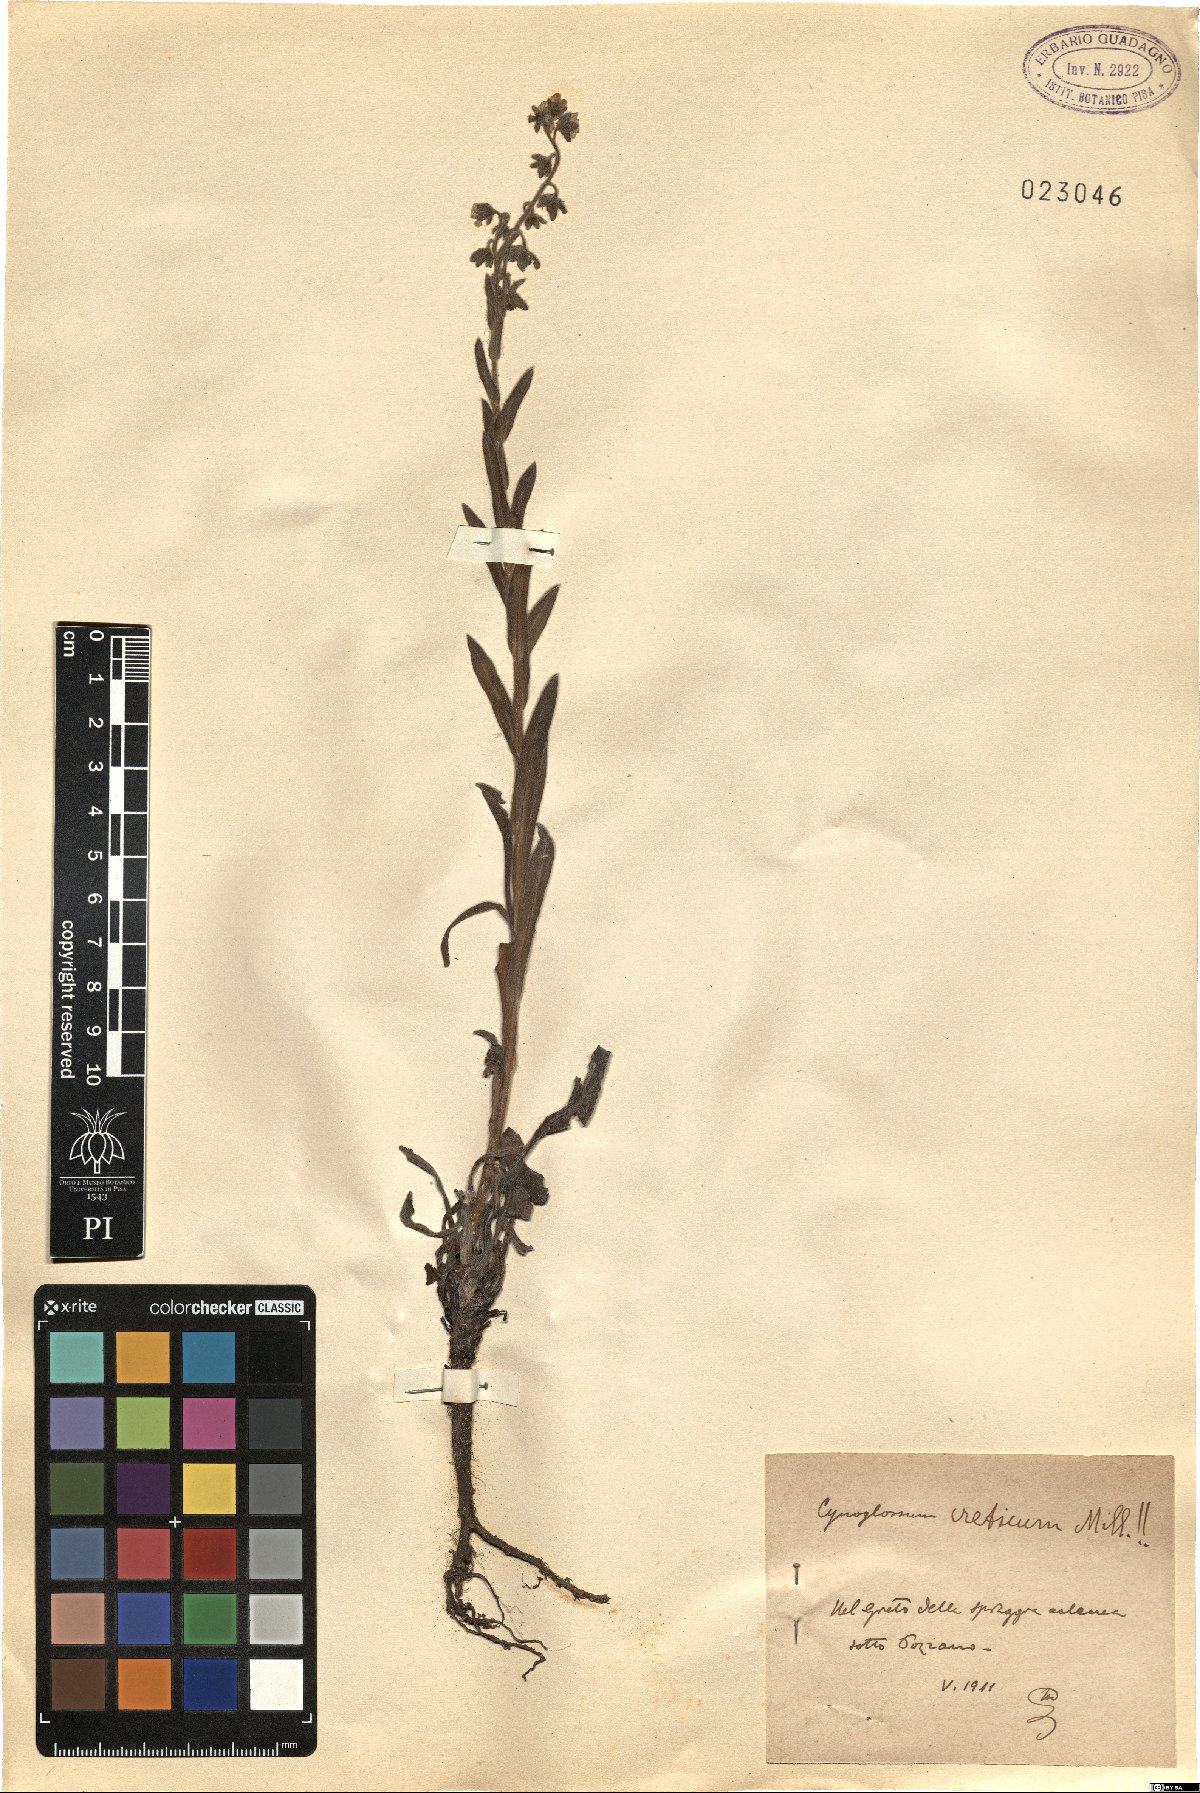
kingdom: Plantae
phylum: Tracheophyta
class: Magnoliopsida
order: Boraginales
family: Boraginaceae
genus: Cynoglossum
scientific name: Cynoglossum creticum
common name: Blue hound's tongue
